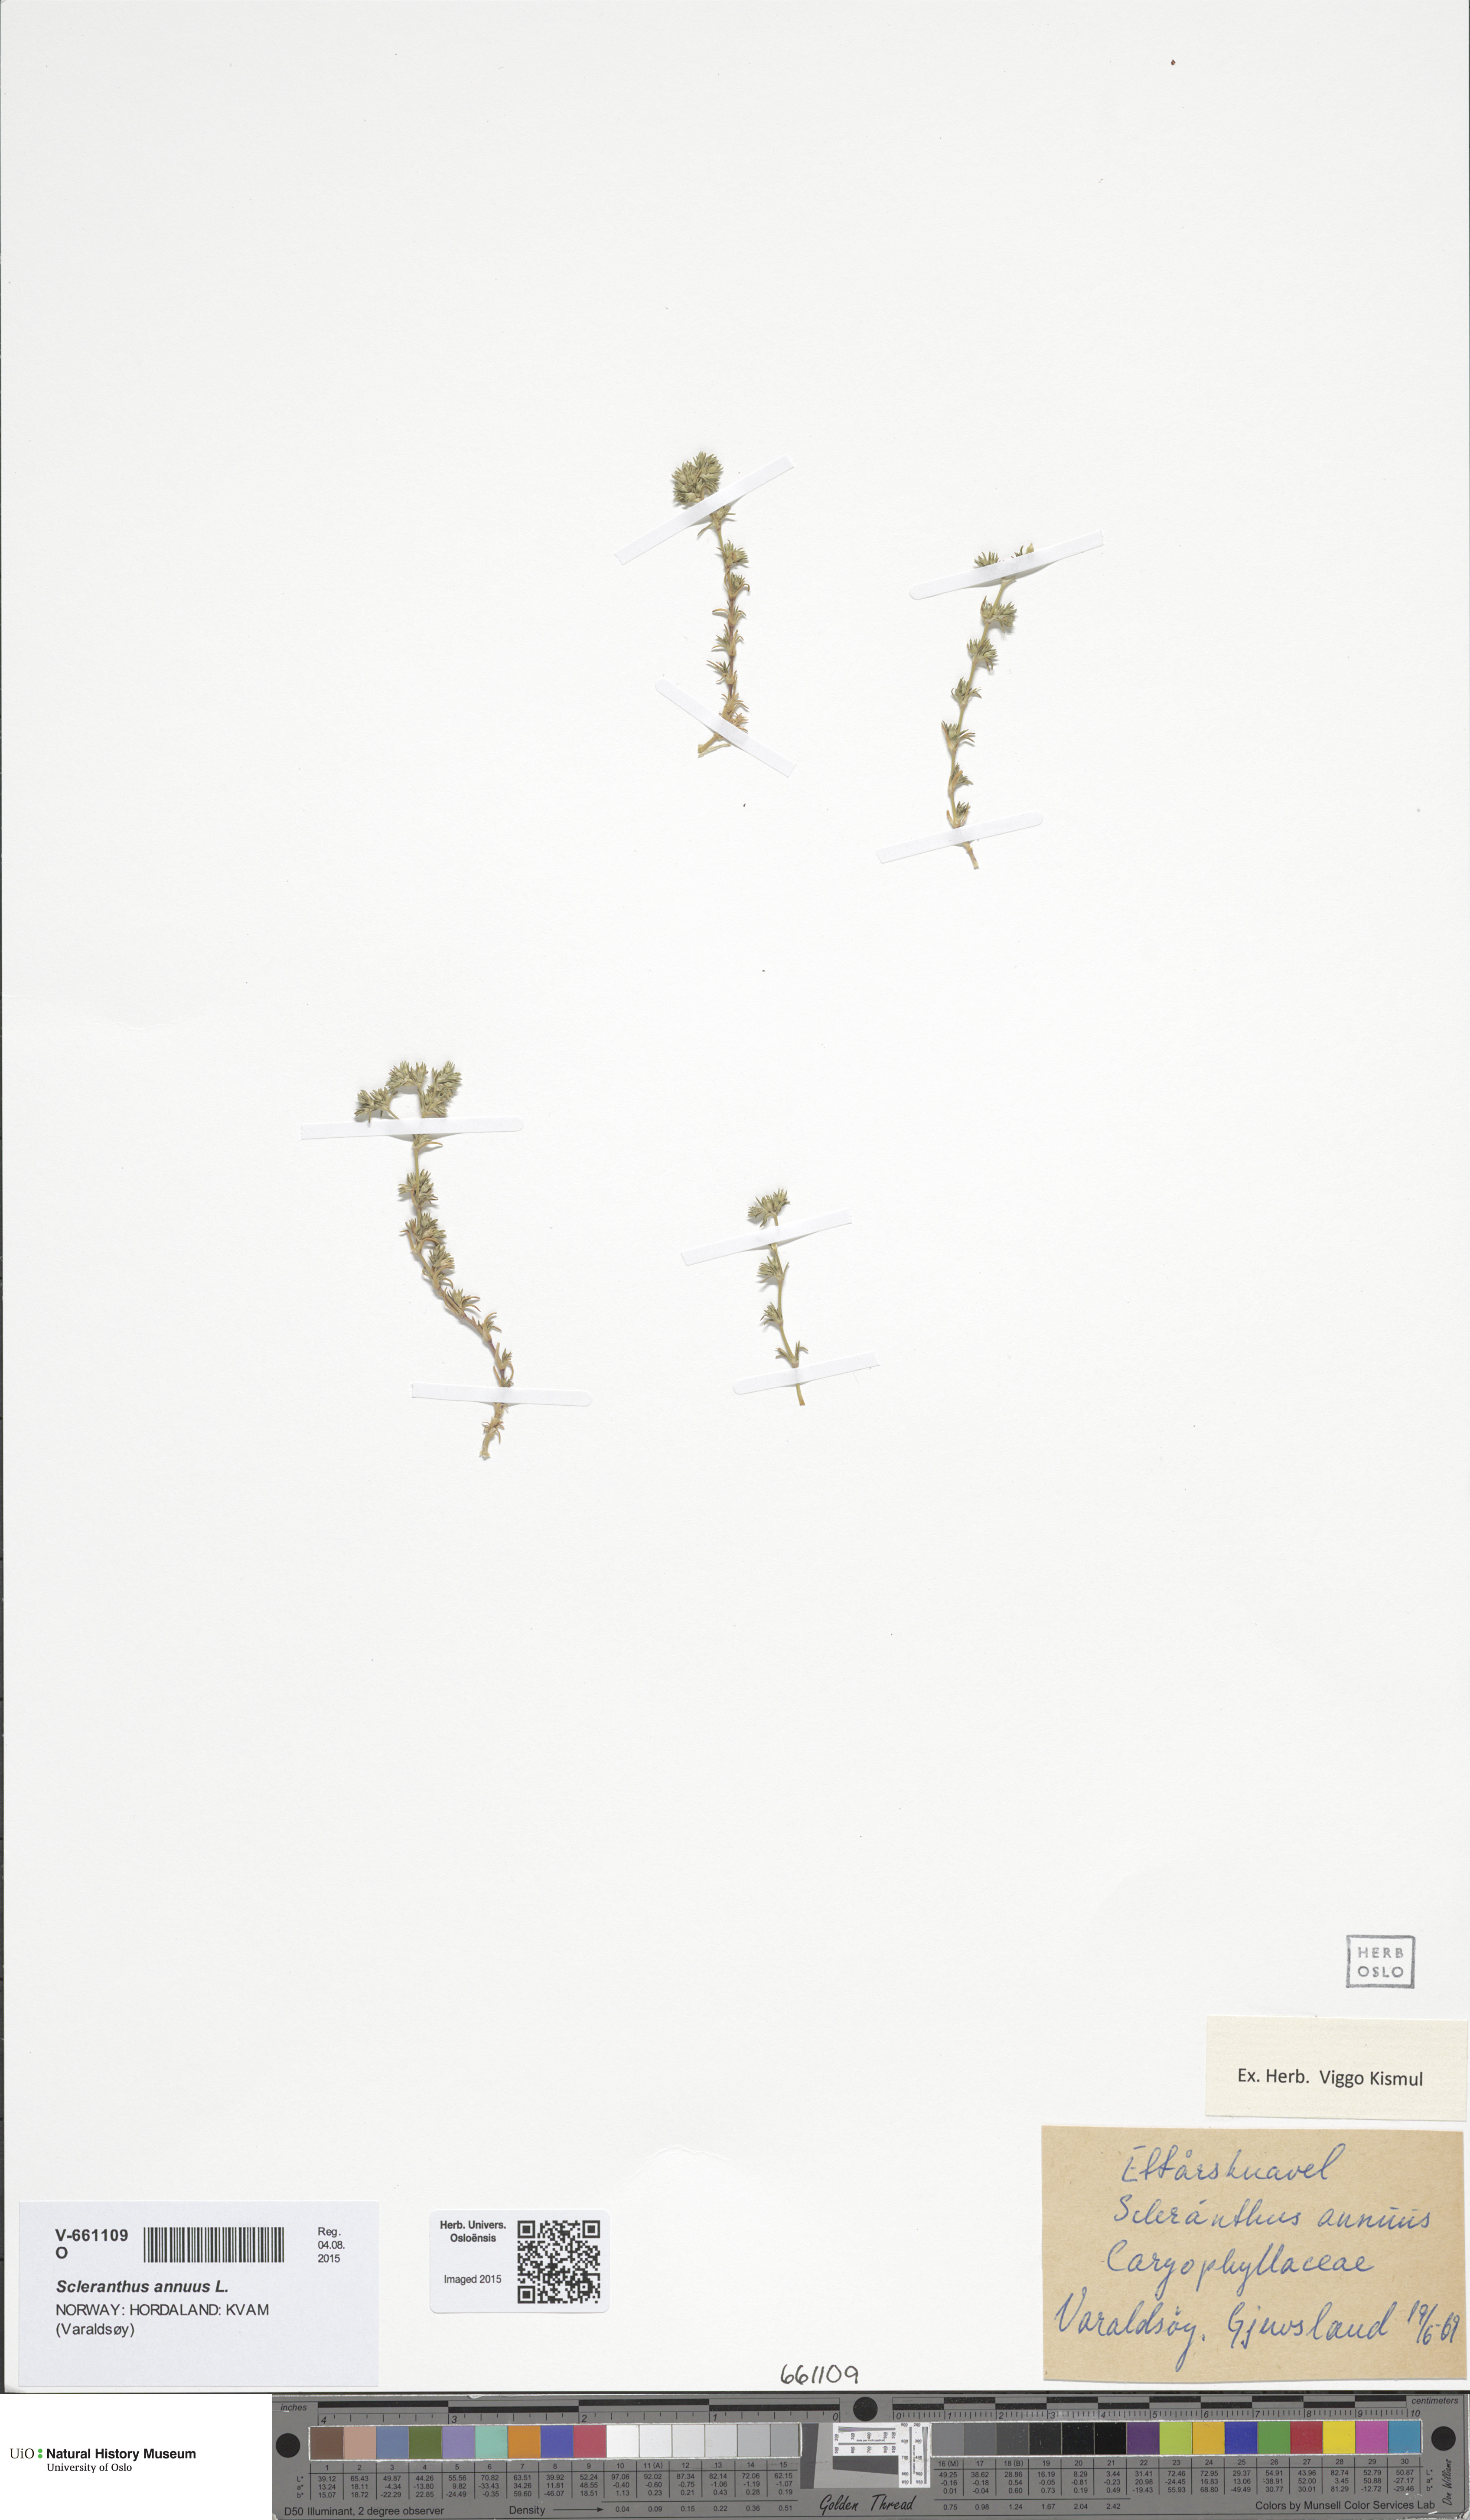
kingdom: Plantae
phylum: Tracheophyta
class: Magnoliopsida
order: Caryophyllales
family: Caryophyllaceae
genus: Scleranthus
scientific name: Scleranthus annuus
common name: Annual knawel
